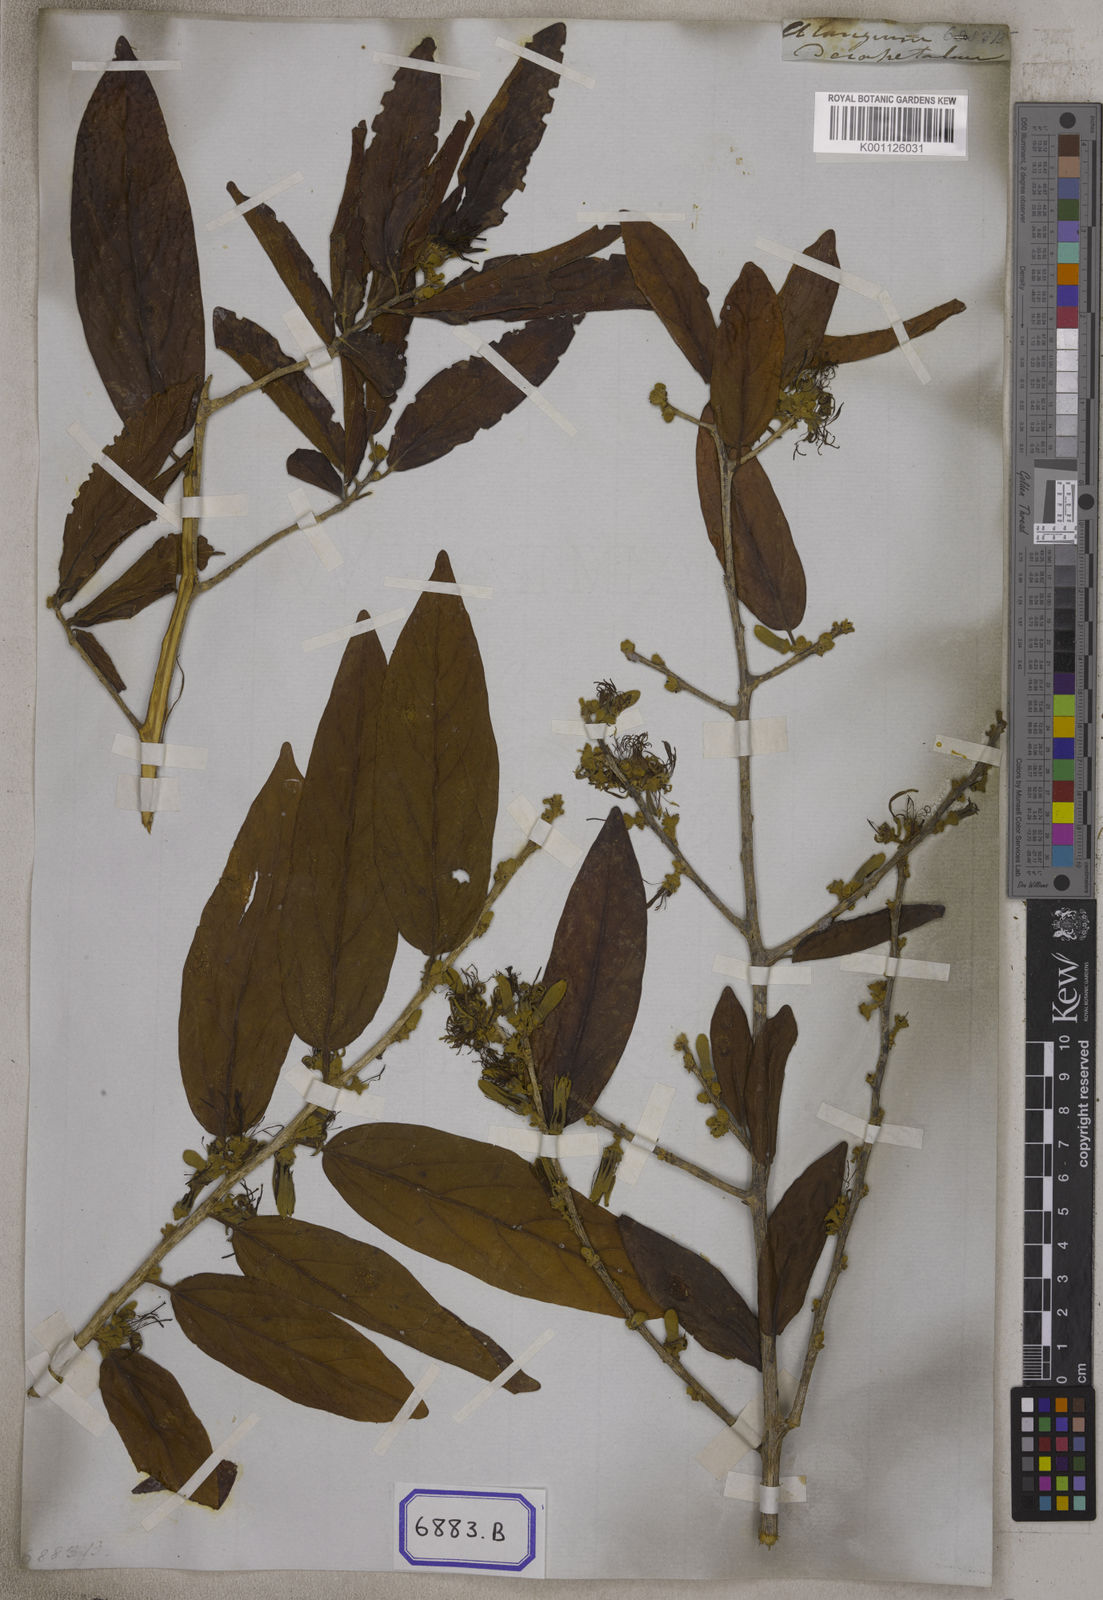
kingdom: Plantae
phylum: Tracheophyta
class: Magnoliopsida
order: Cornales
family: Cornaceae
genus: Alangium
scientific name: Alangium salviifolium
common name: Sage-leaf alangium
